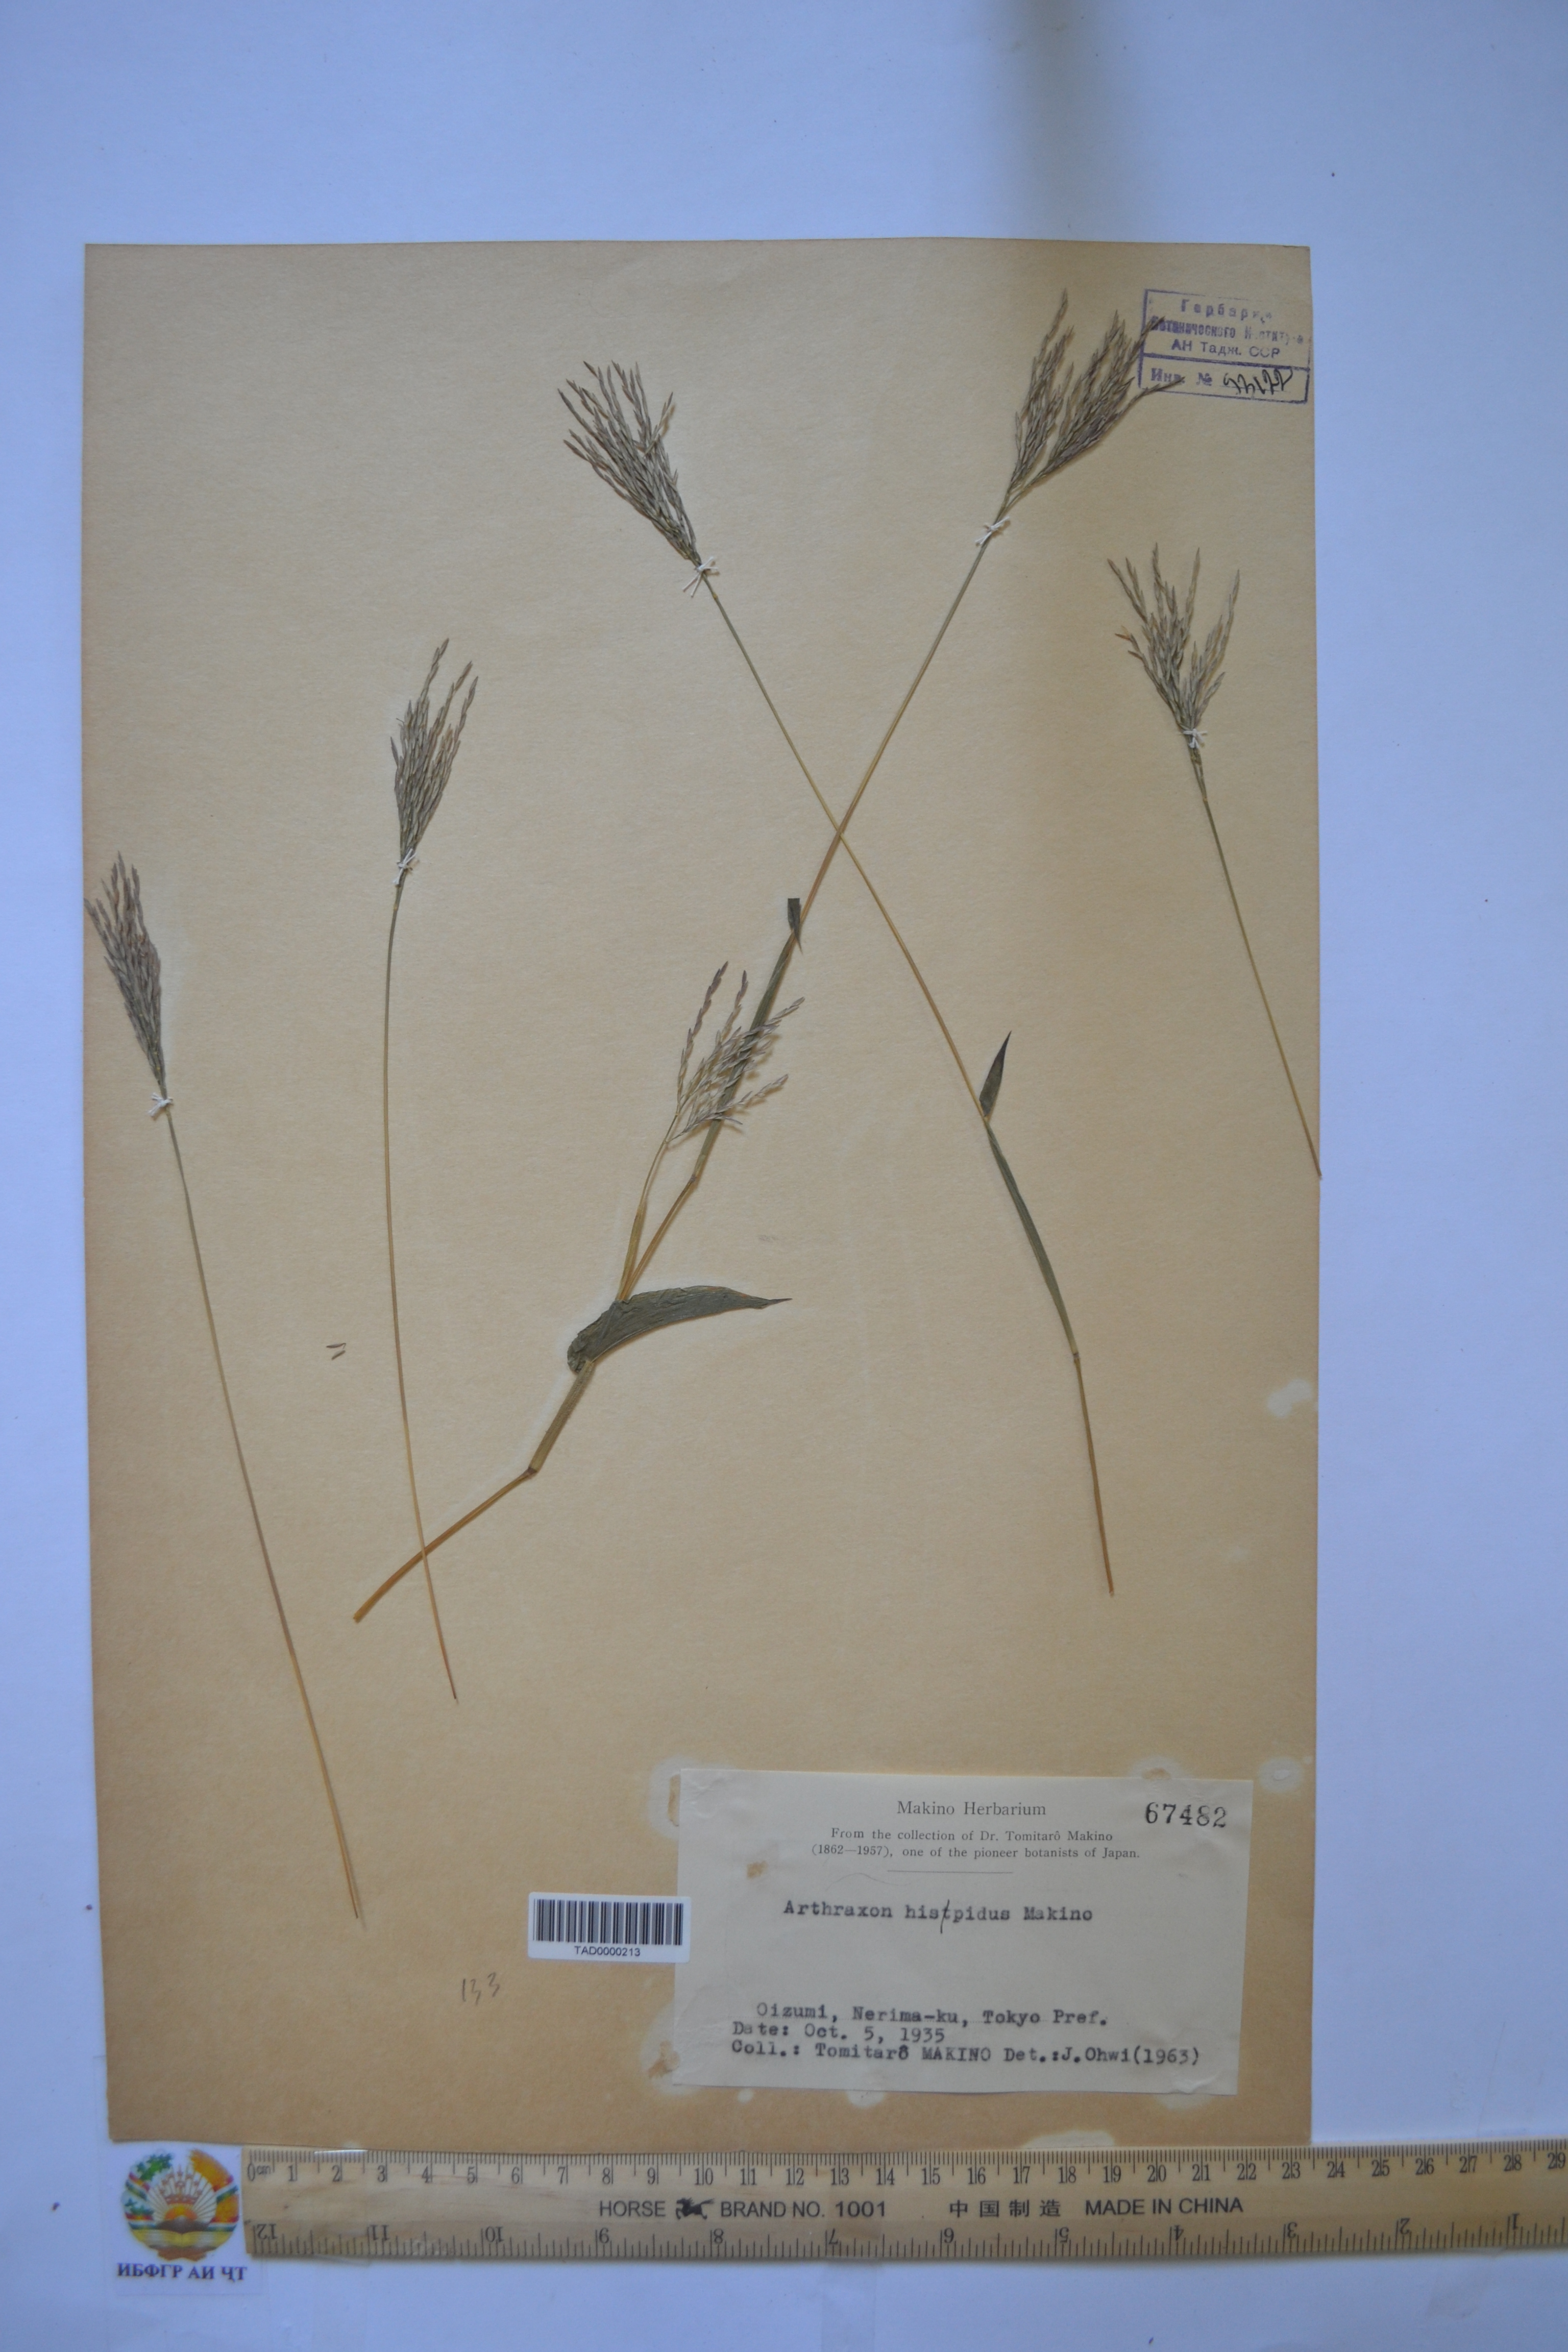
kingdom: Plantae
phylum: Tracheophyta
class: Liliopsida
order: Poales
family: Poaceae
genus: Arthraxon
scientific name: Arthraxon hispidus
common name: Small carpgrass
